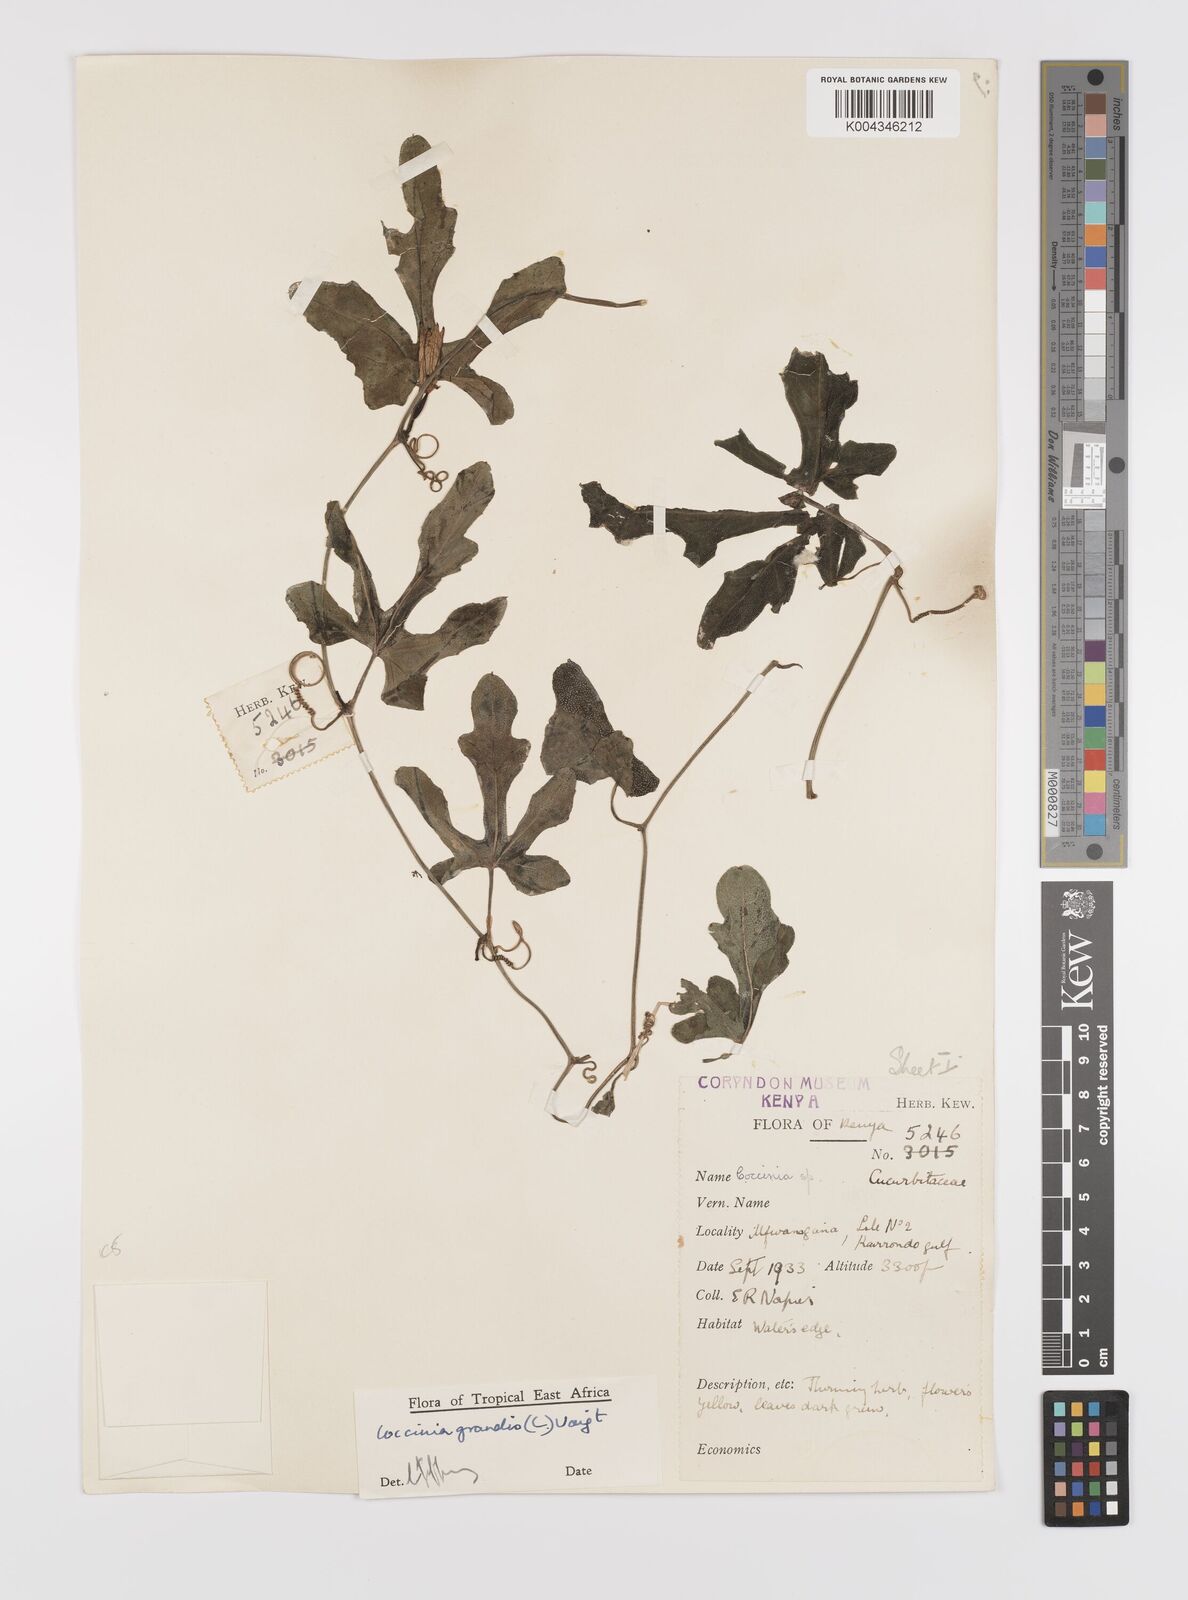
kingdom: Plantae
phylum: Tracheophyta
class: Magnoliopsida
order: Cucurbitales
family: Cucurbitaceae
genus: Coccinia
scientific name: Coccinia grandis
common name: Ivy gourd
